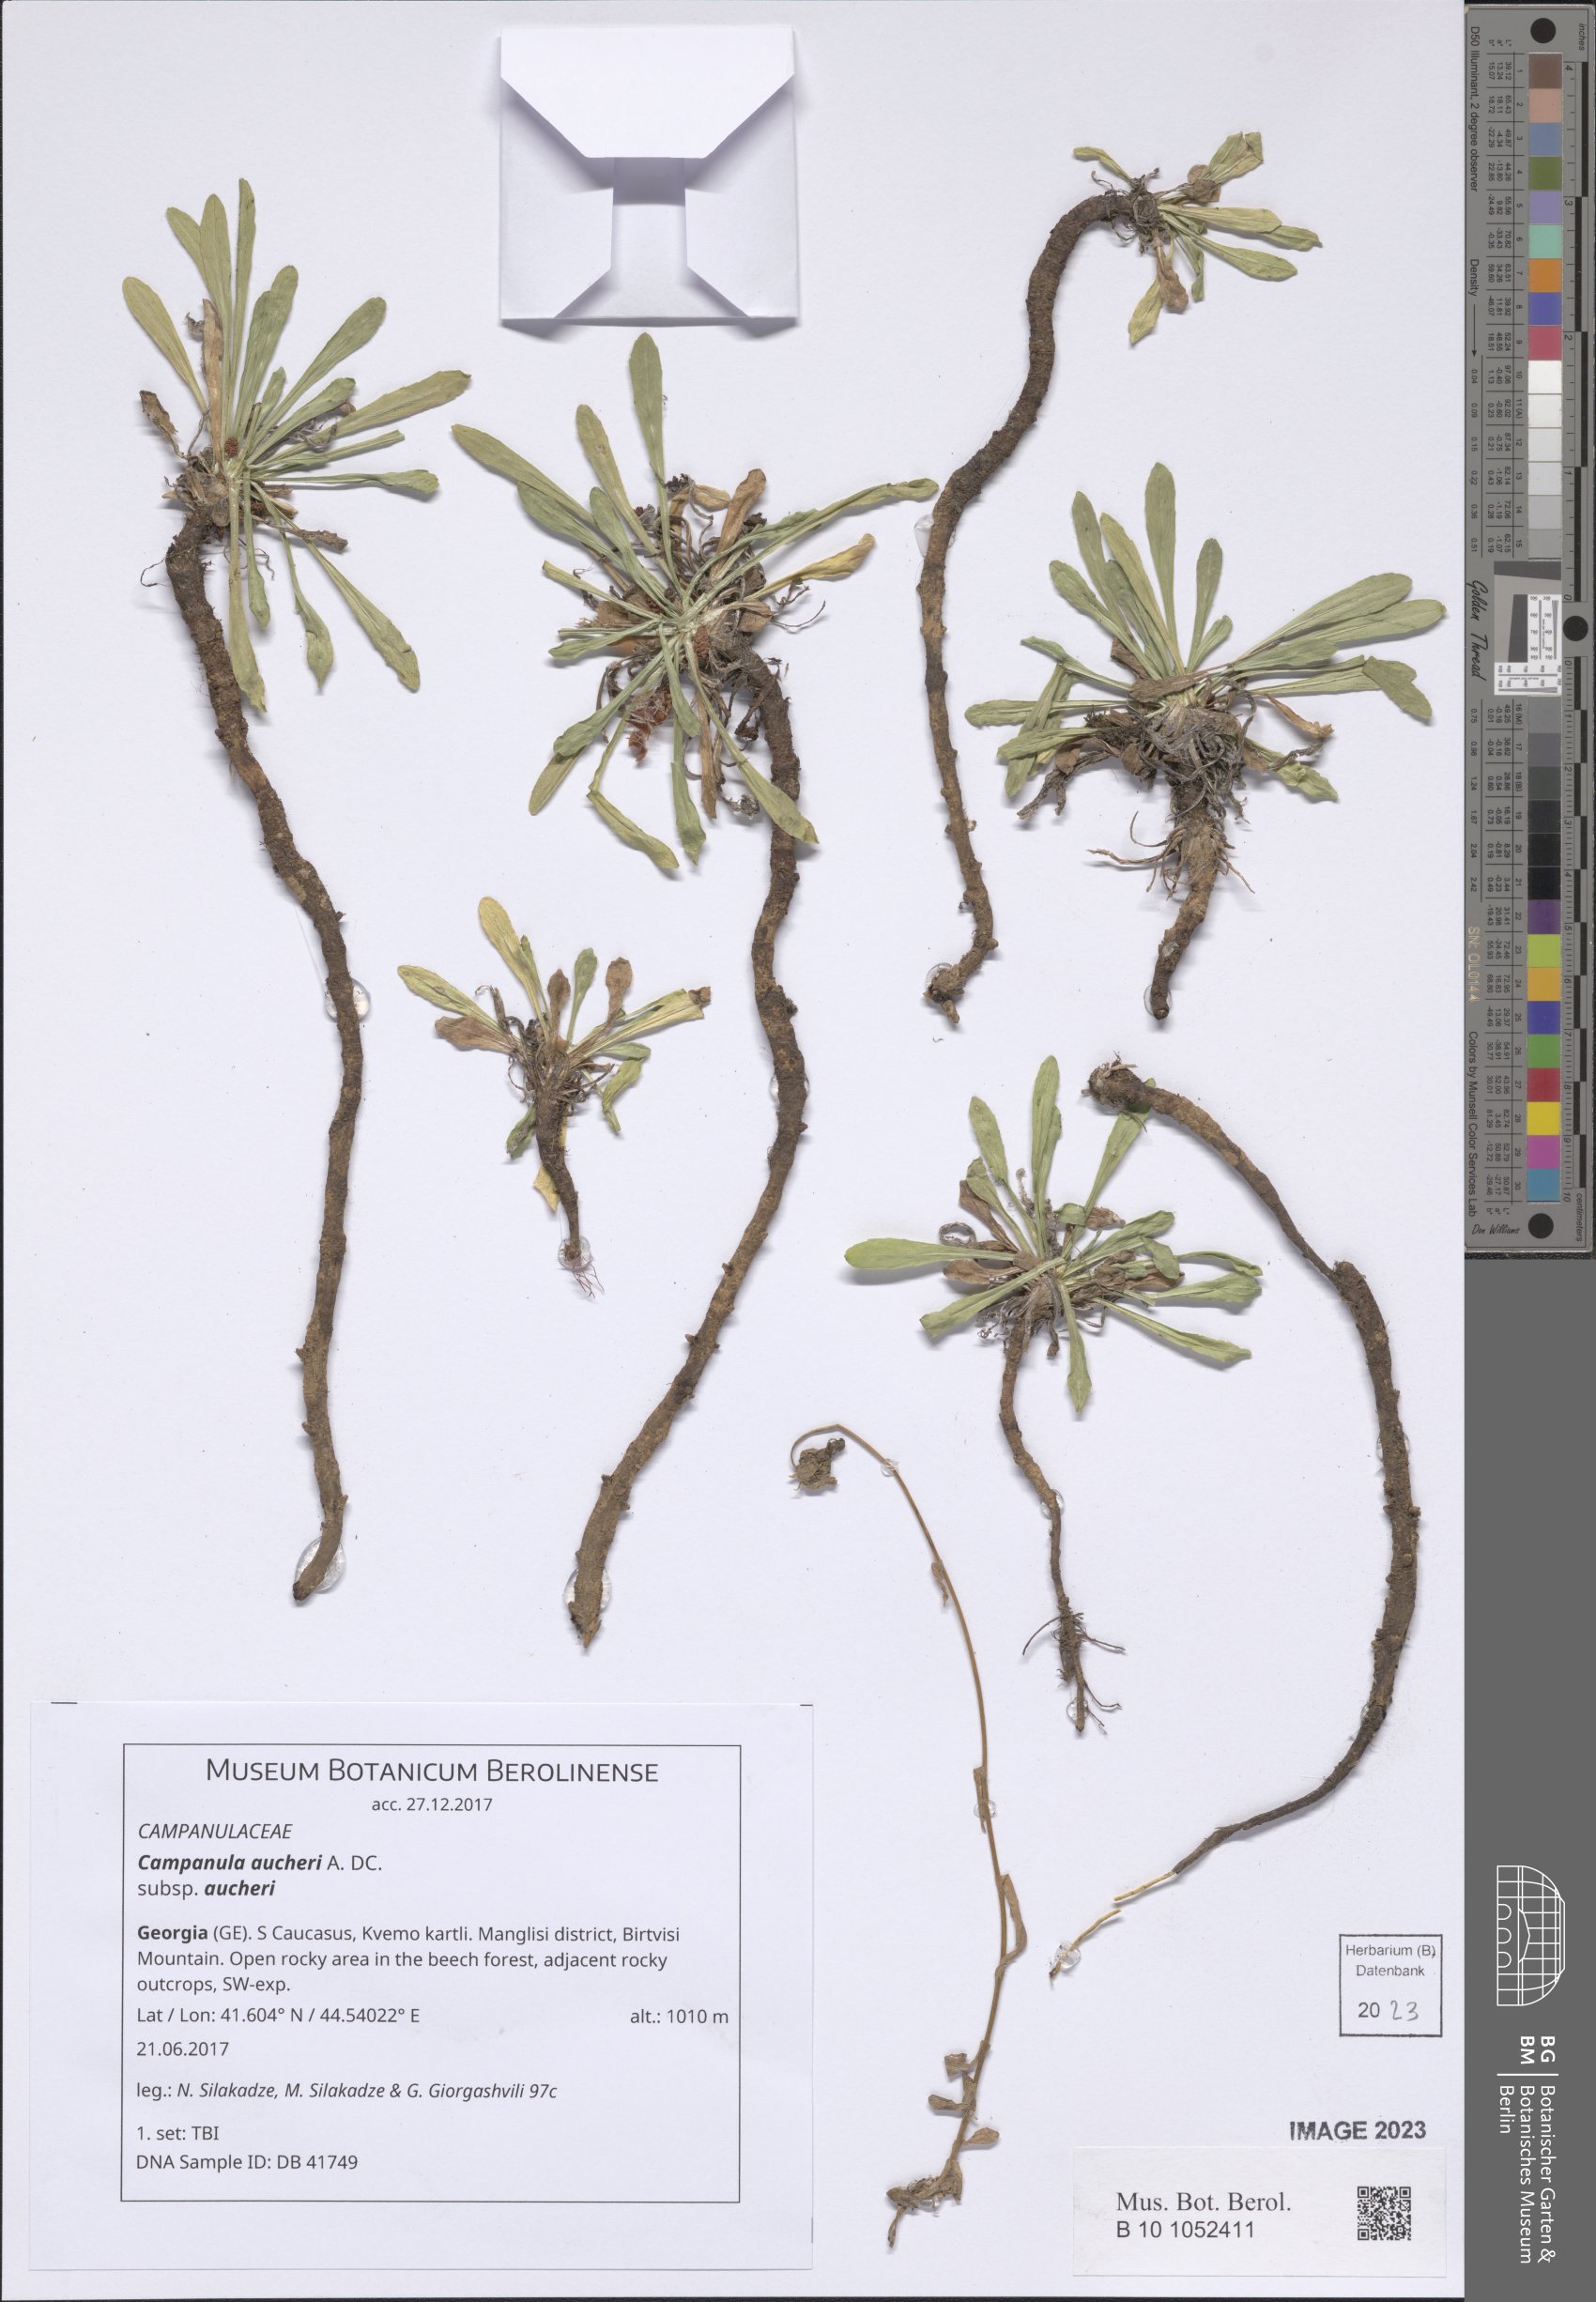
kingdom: Plantae
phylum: Tracheophyta
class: Magnoliopsida
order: Asterales
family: Campanulaceae
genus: Campanula
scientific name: Campanula saxifraga
